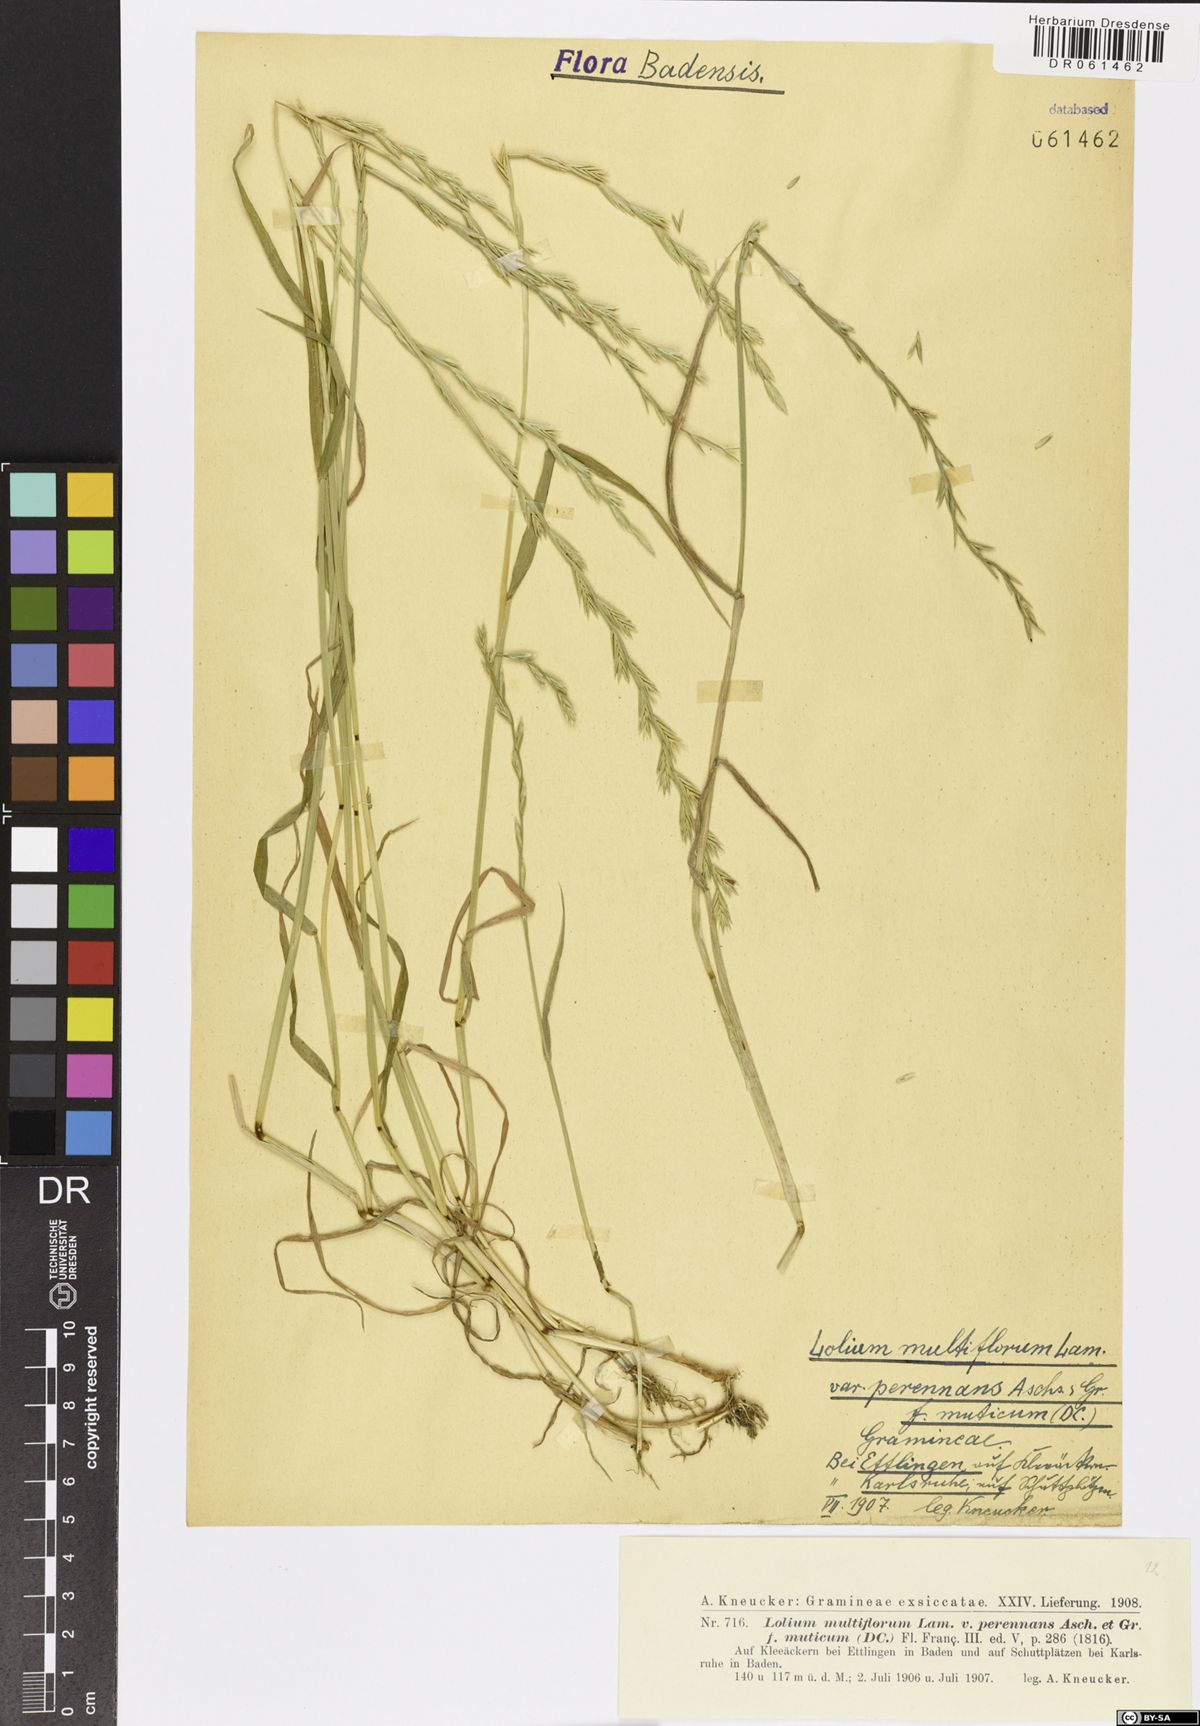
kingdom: Plantae
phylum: Tracheophyta
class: Liliopsida
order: Poales
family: Poaceae
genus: Lolium
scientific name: Lolium multiflorum
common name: Annual ryegrass
